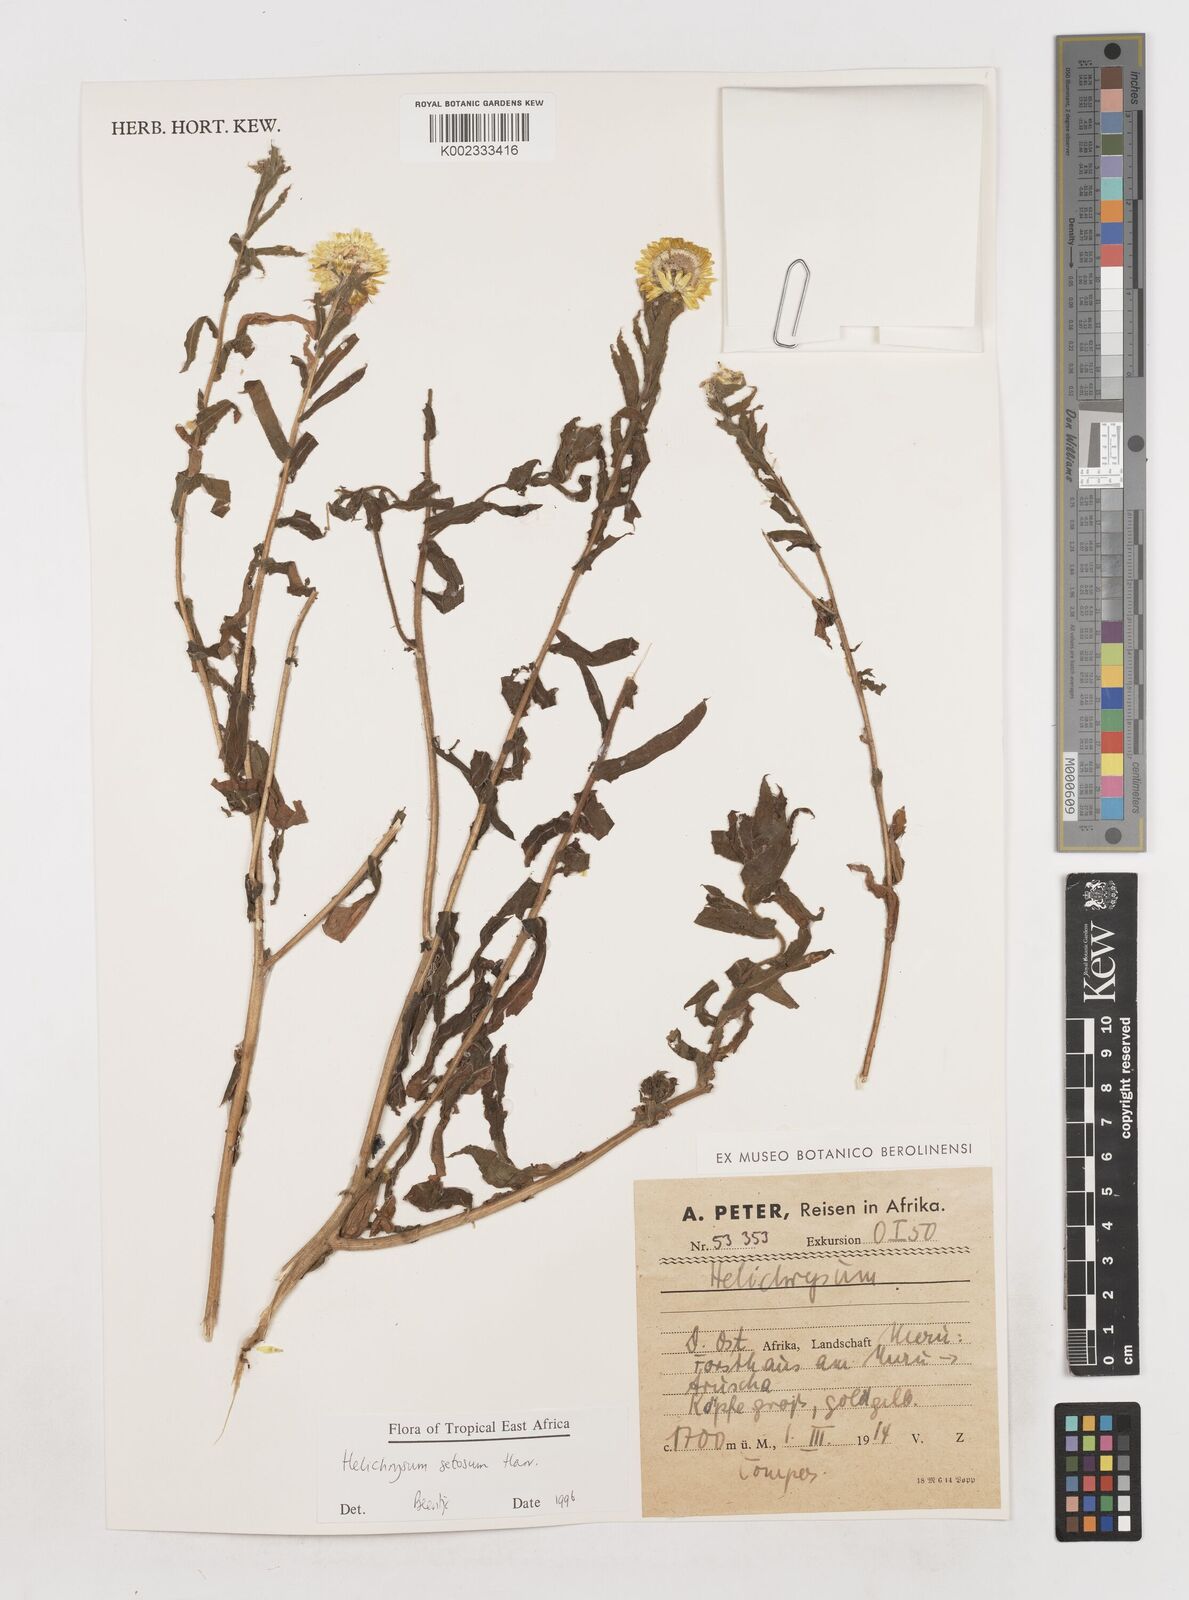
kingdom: Plantae
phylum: Tracheophyta
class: Magnoliopsida
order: Asterales
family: Asteraceae
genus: Helichrysum
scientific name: Helichrysum setosum
